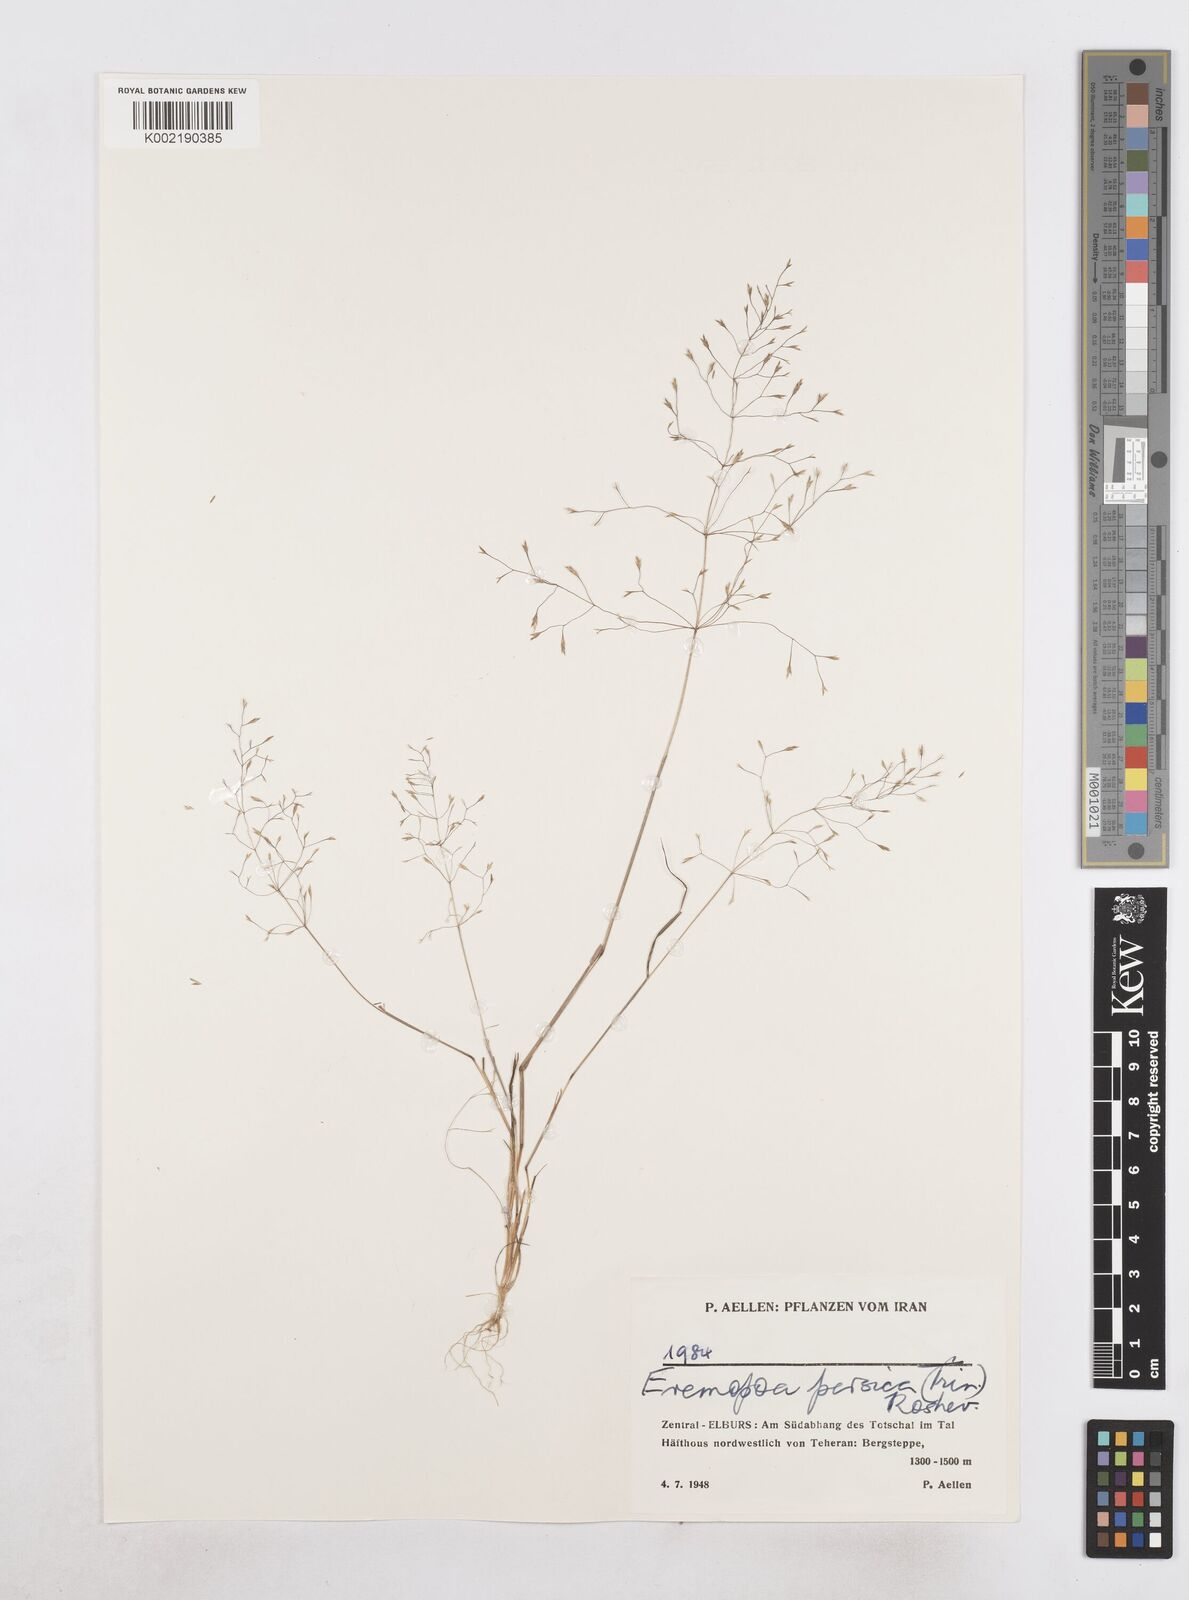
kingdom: Plantae
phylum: Tracheophyta
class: Liliopsida
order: Poales
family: Poaceae
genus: Poa
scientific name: Poa persica
